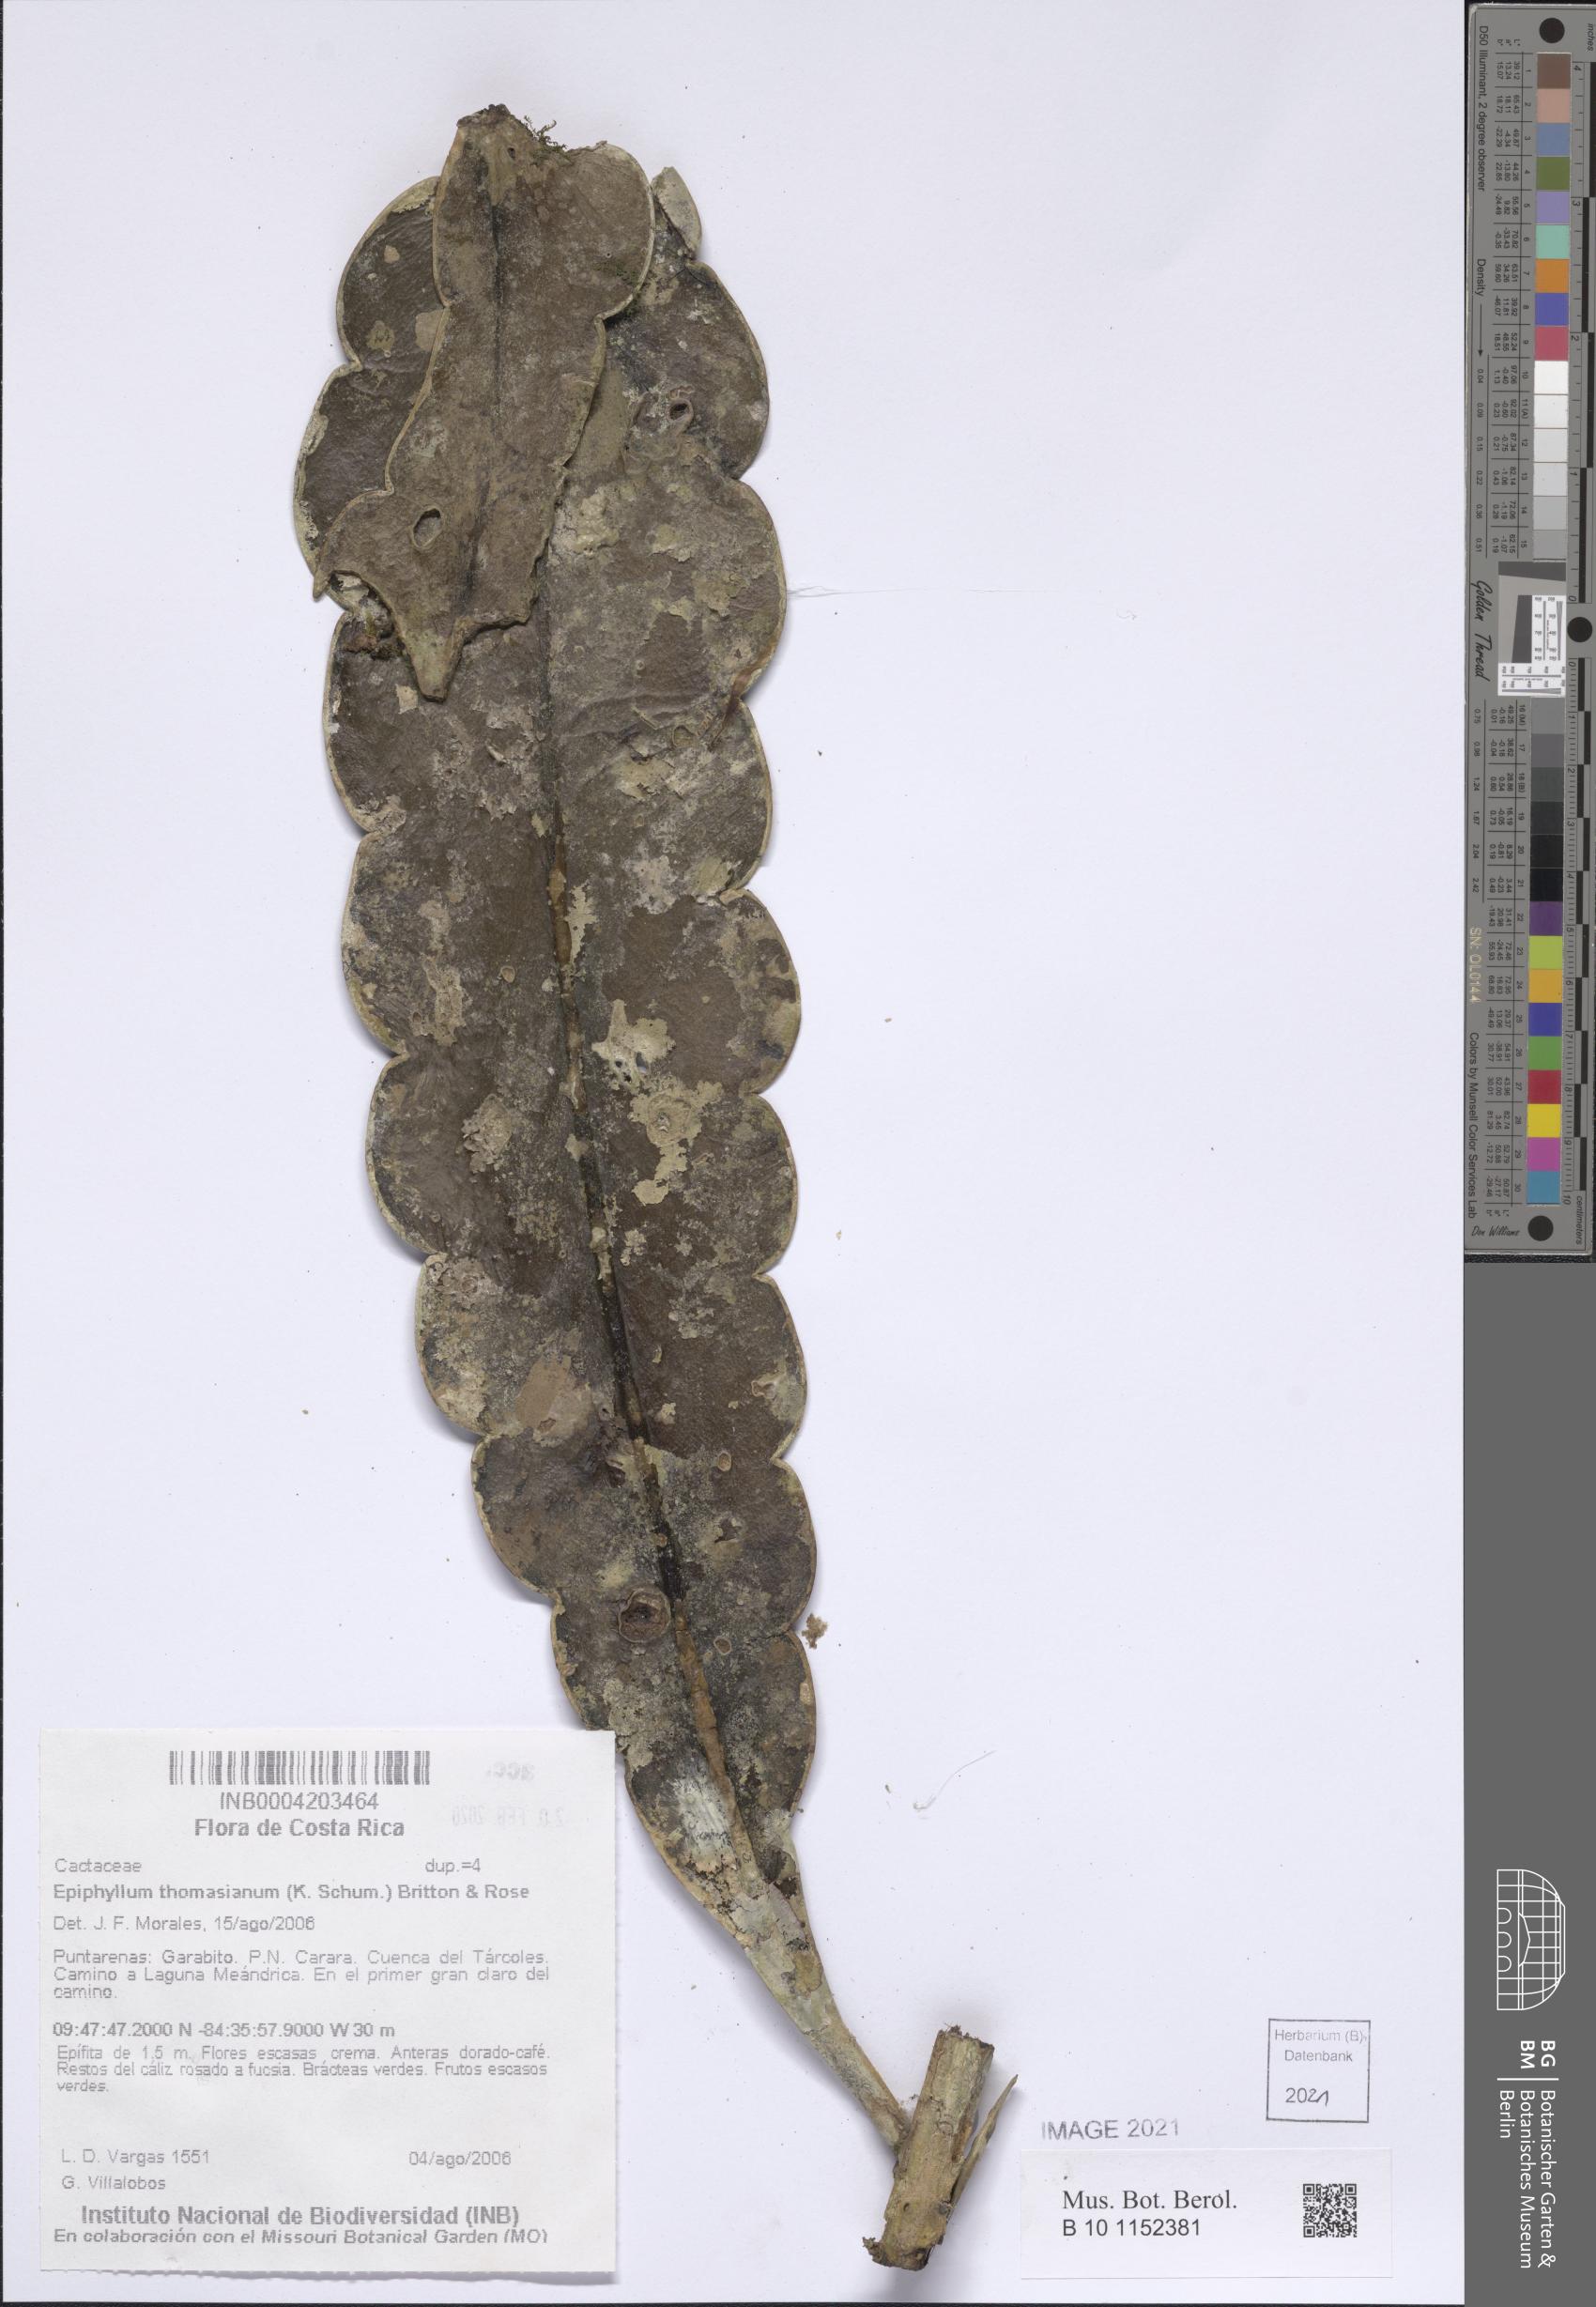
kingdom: Plantae
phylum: Tracheophyta
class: Magnoliopsida
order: Caryophyllales
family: Cactaceae
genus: Epiphyllum
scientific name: Epiphyllum thomasianum
